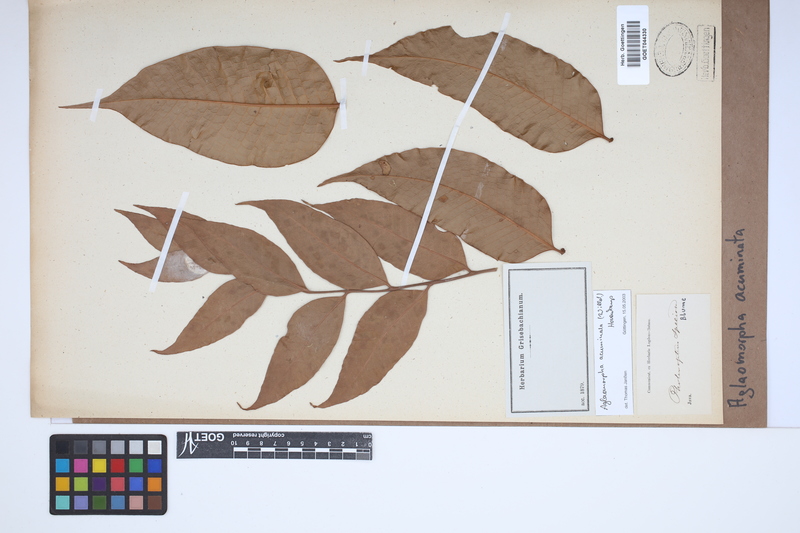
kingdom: Plantae
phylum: Tracheophyta
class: Polypodiopsida
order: Polypodiales
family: Polypodiaceae
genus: Drynaria
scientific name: Drynaria speciosa
